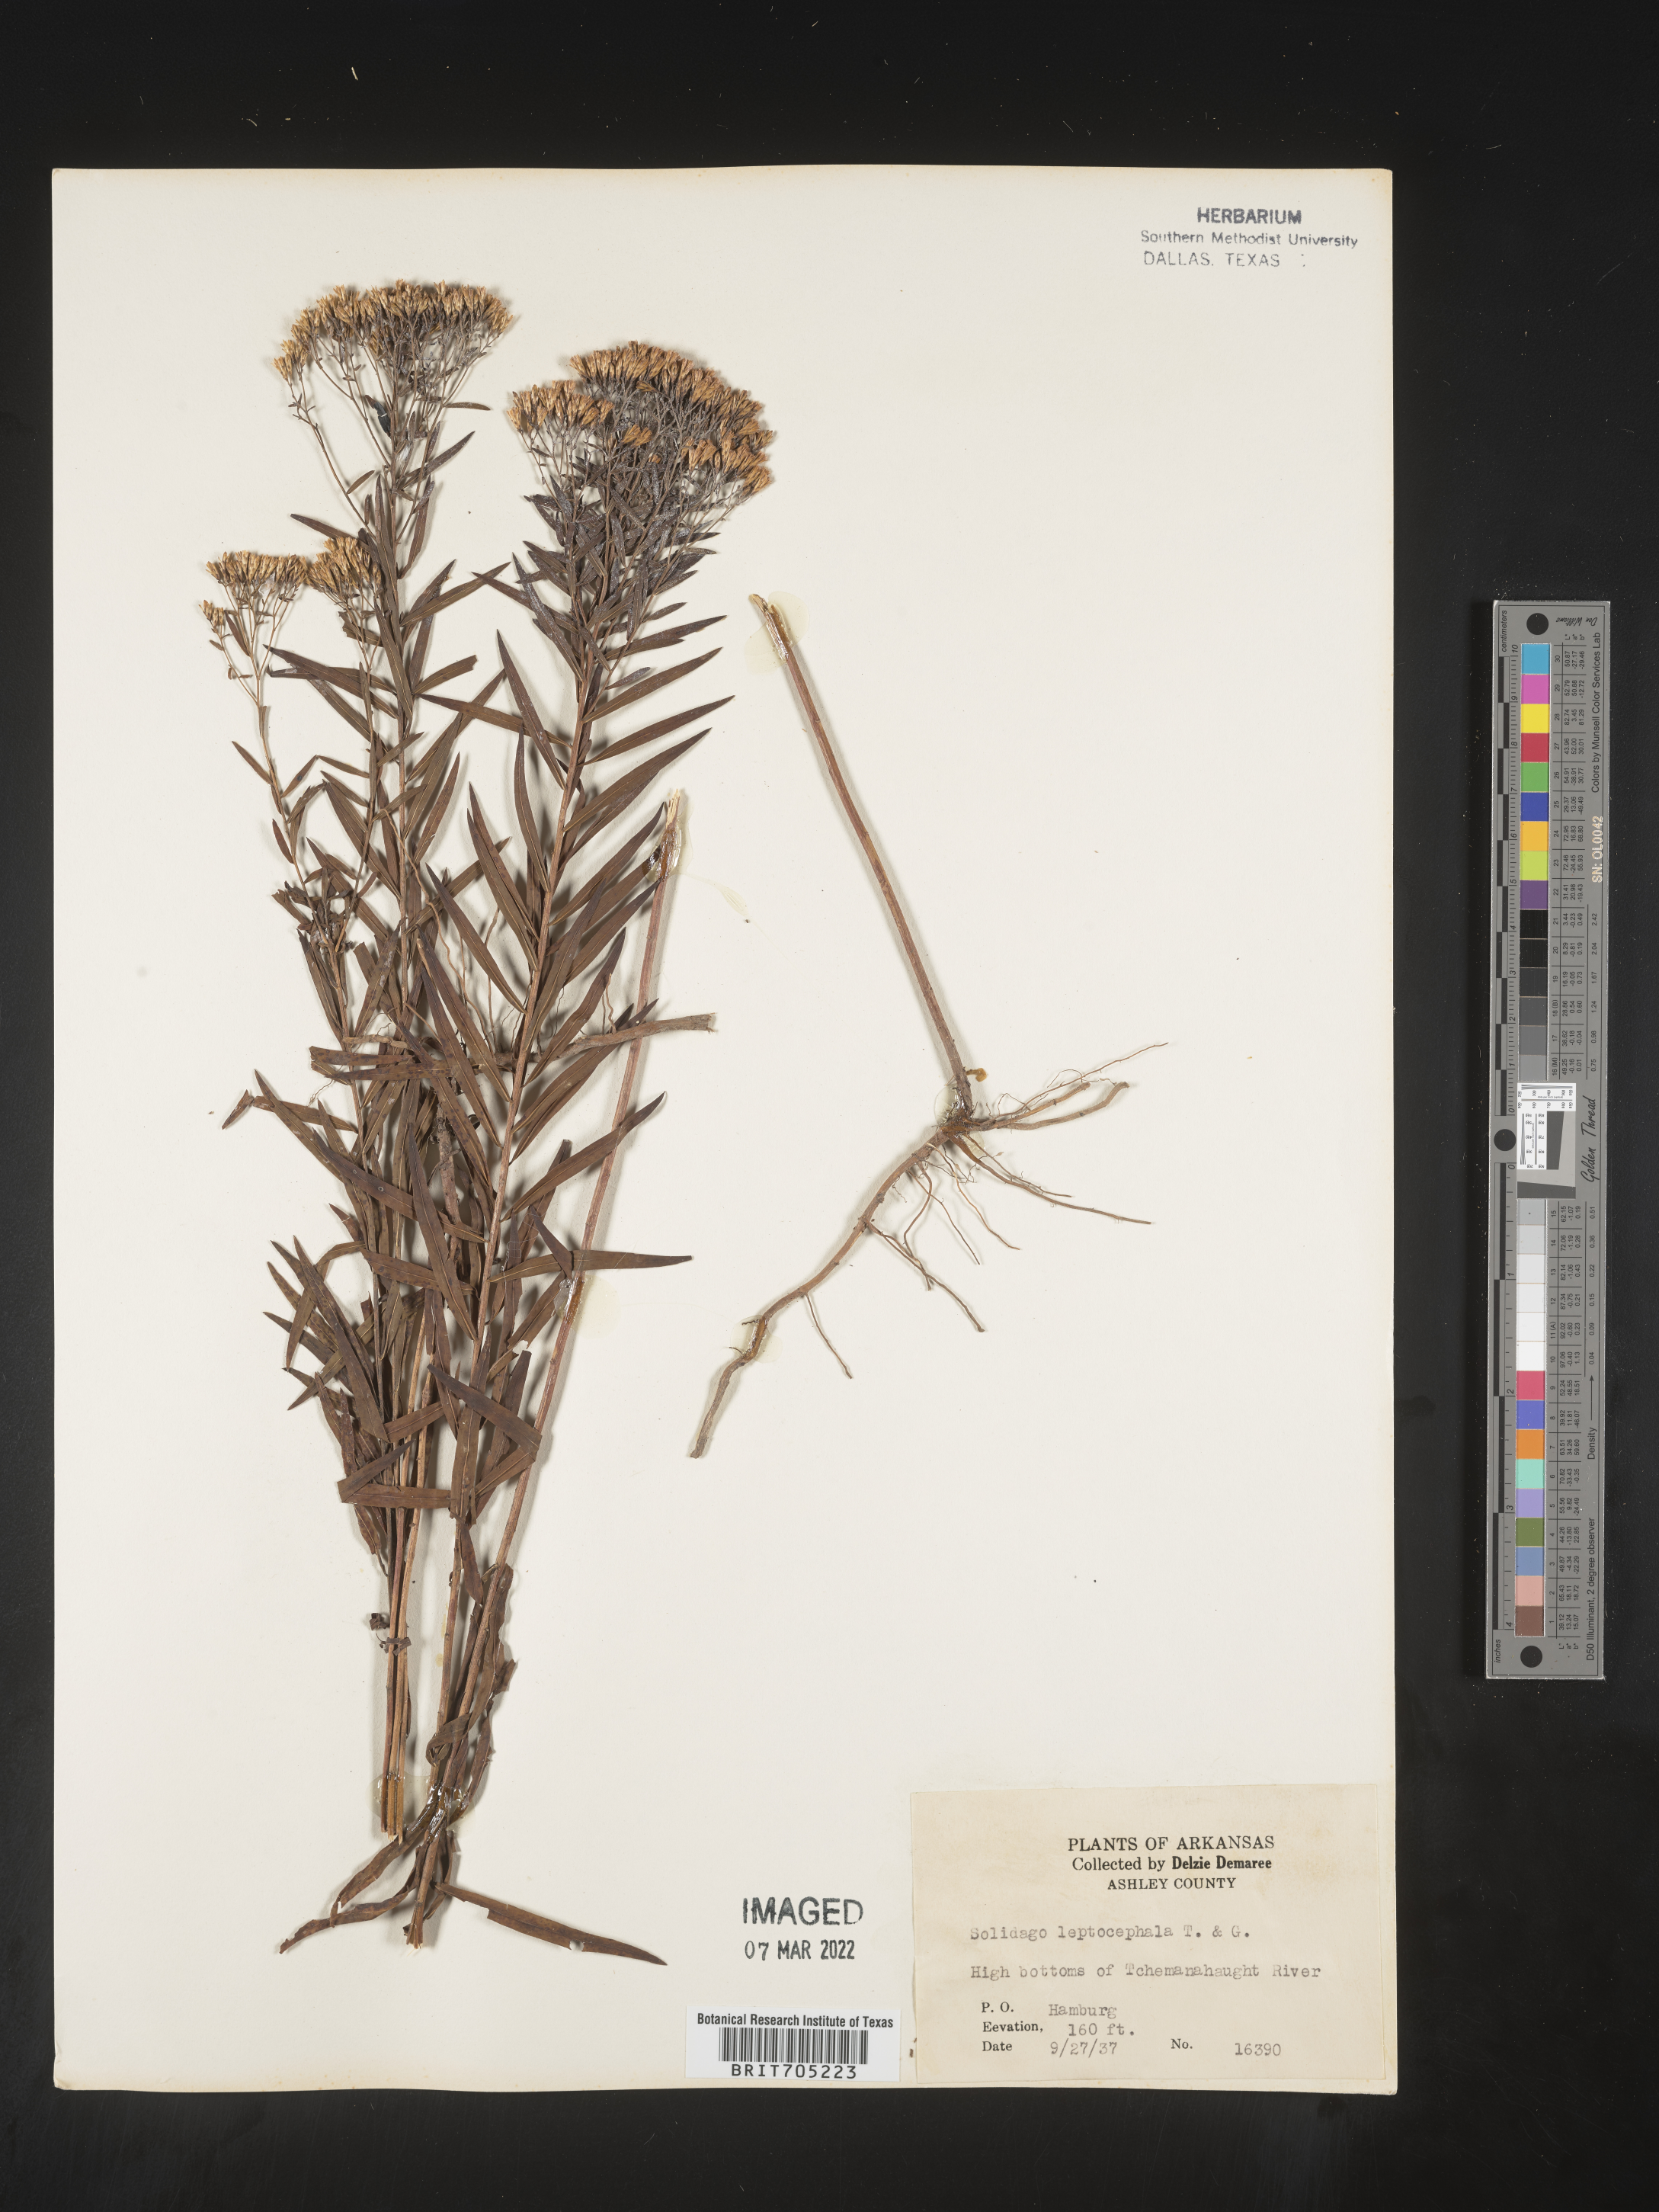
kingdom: Plantae
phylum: Tracheophyta
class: Magnoliopsida
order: Asterales
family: Asteraceae
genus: Euthamia
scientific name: Euthamia leptocephala
